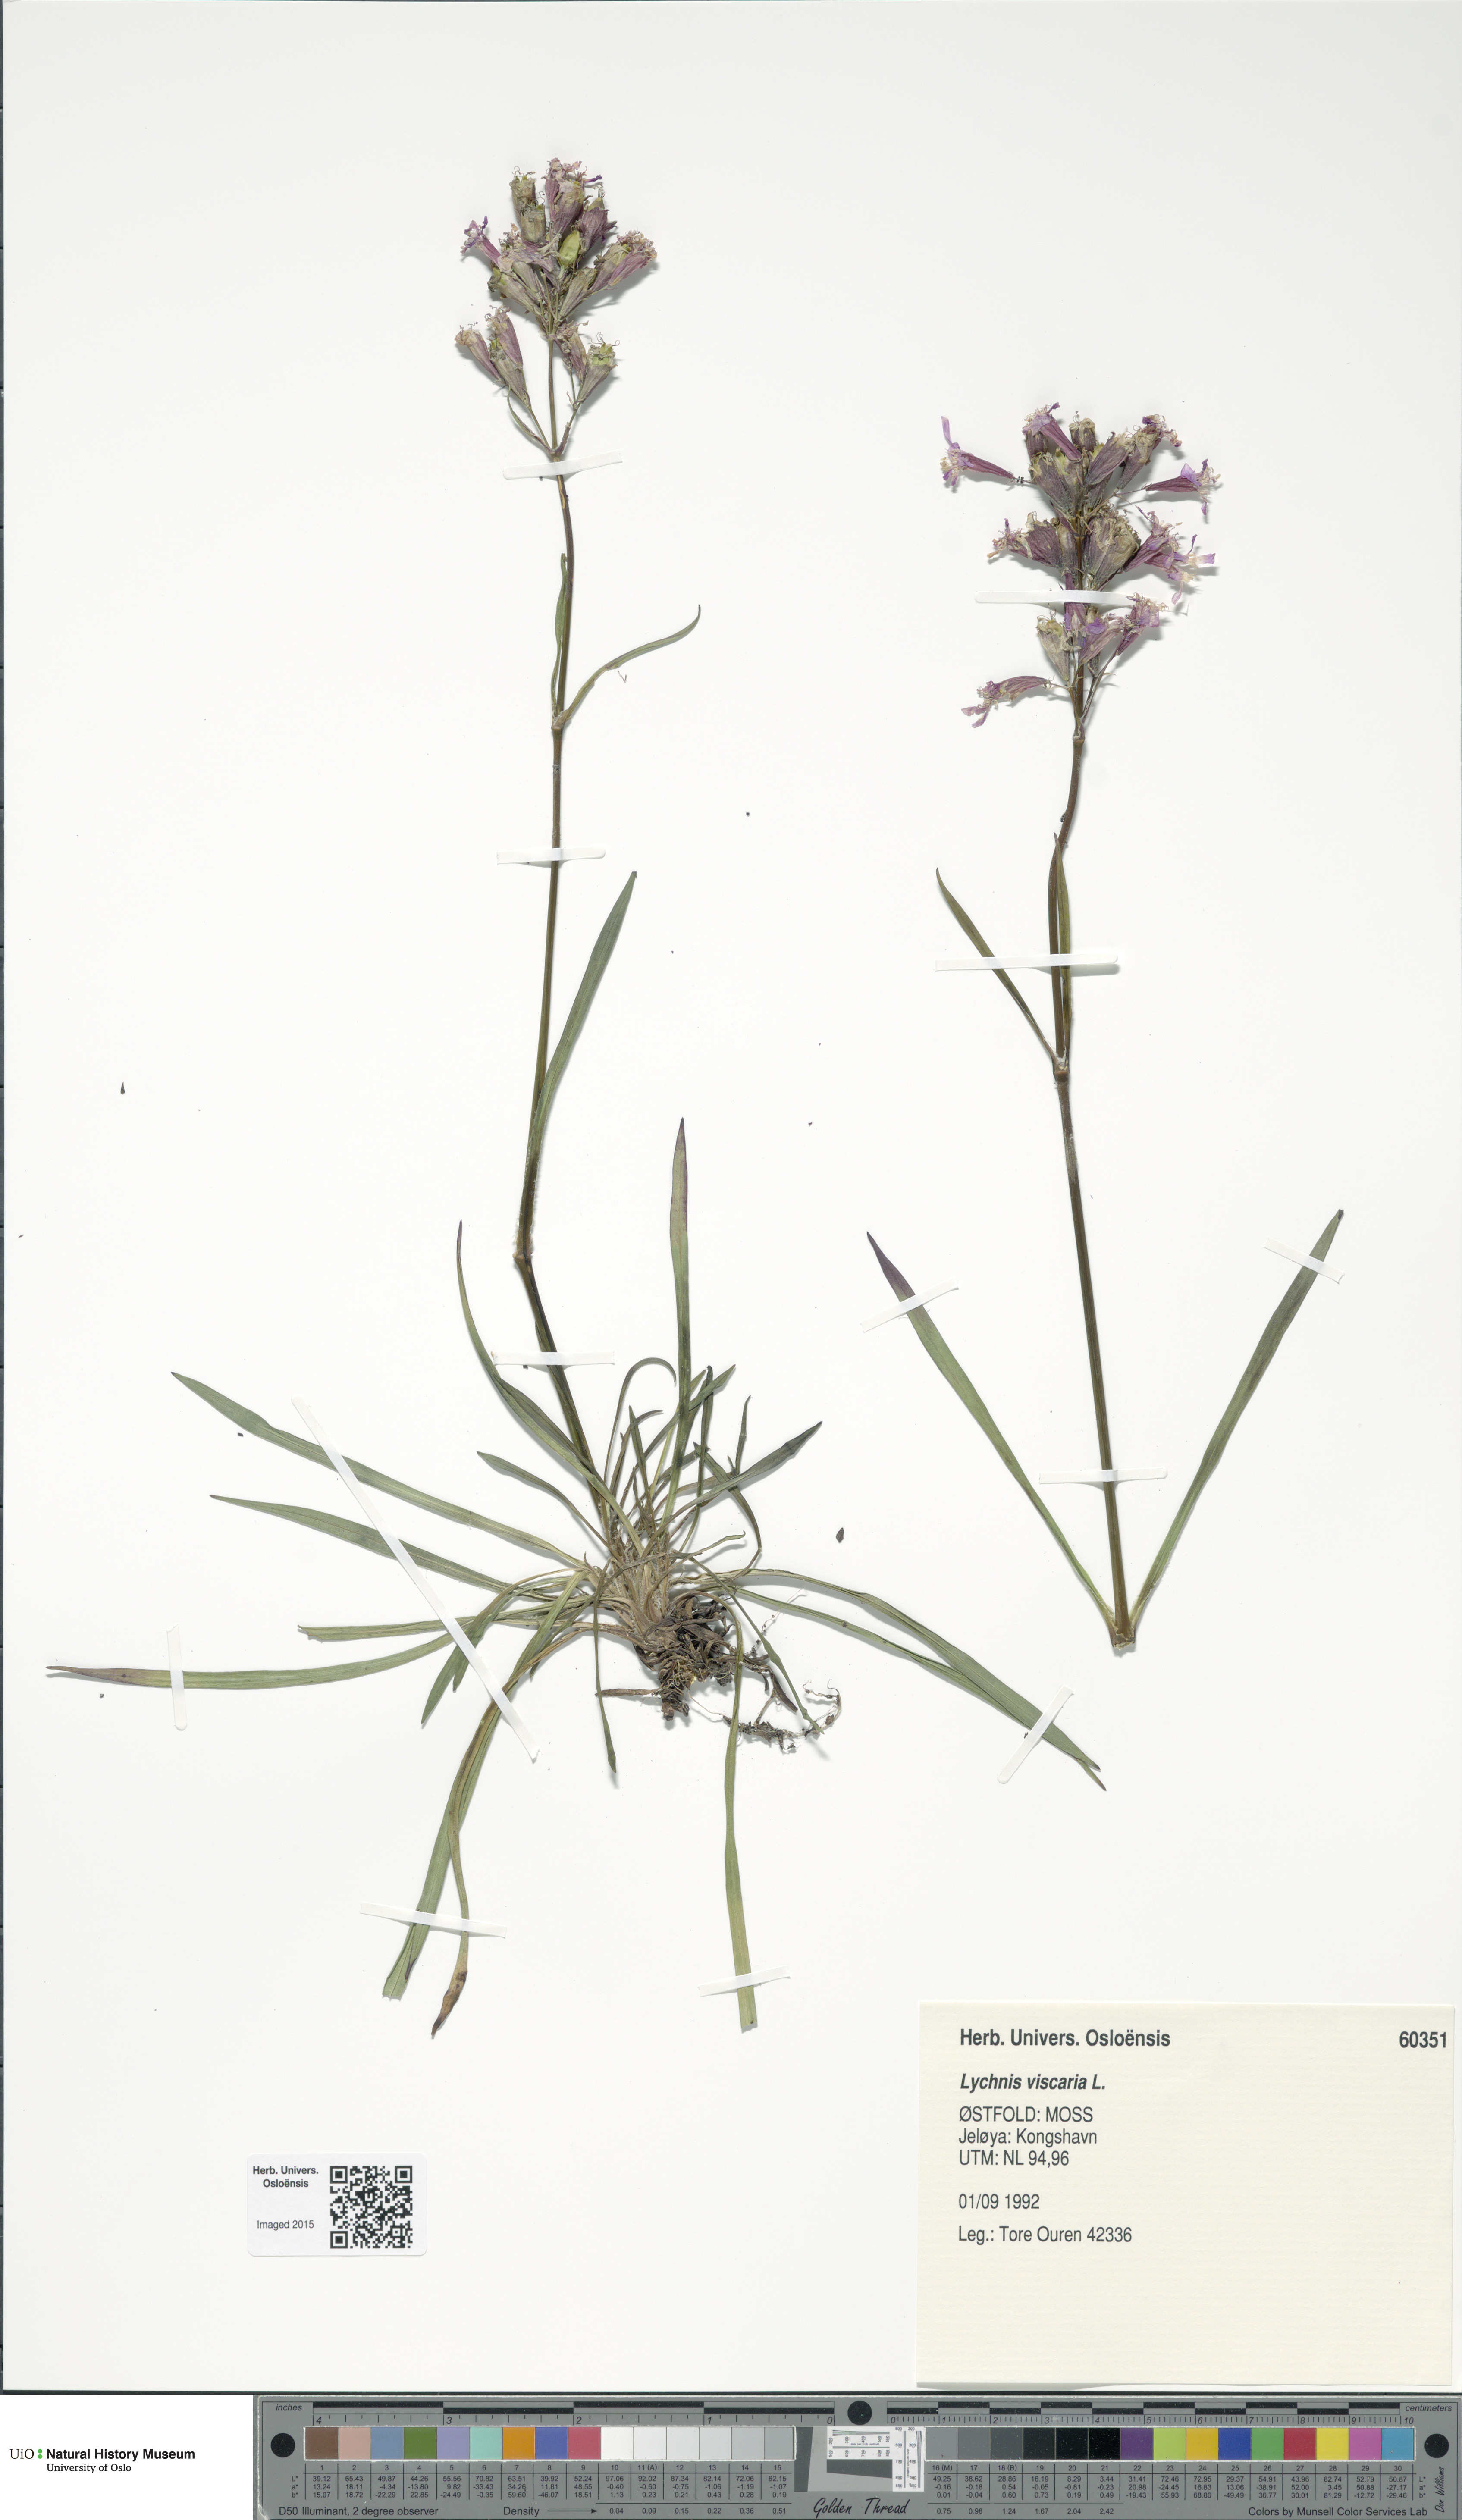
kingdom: Plantae
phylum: Tracheophyta
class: Magnoliopsida
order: Caryophyllales
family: Caryophyllaceae
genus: Viscaria
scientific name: Viscaria vulgaris
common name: Clammy campion
